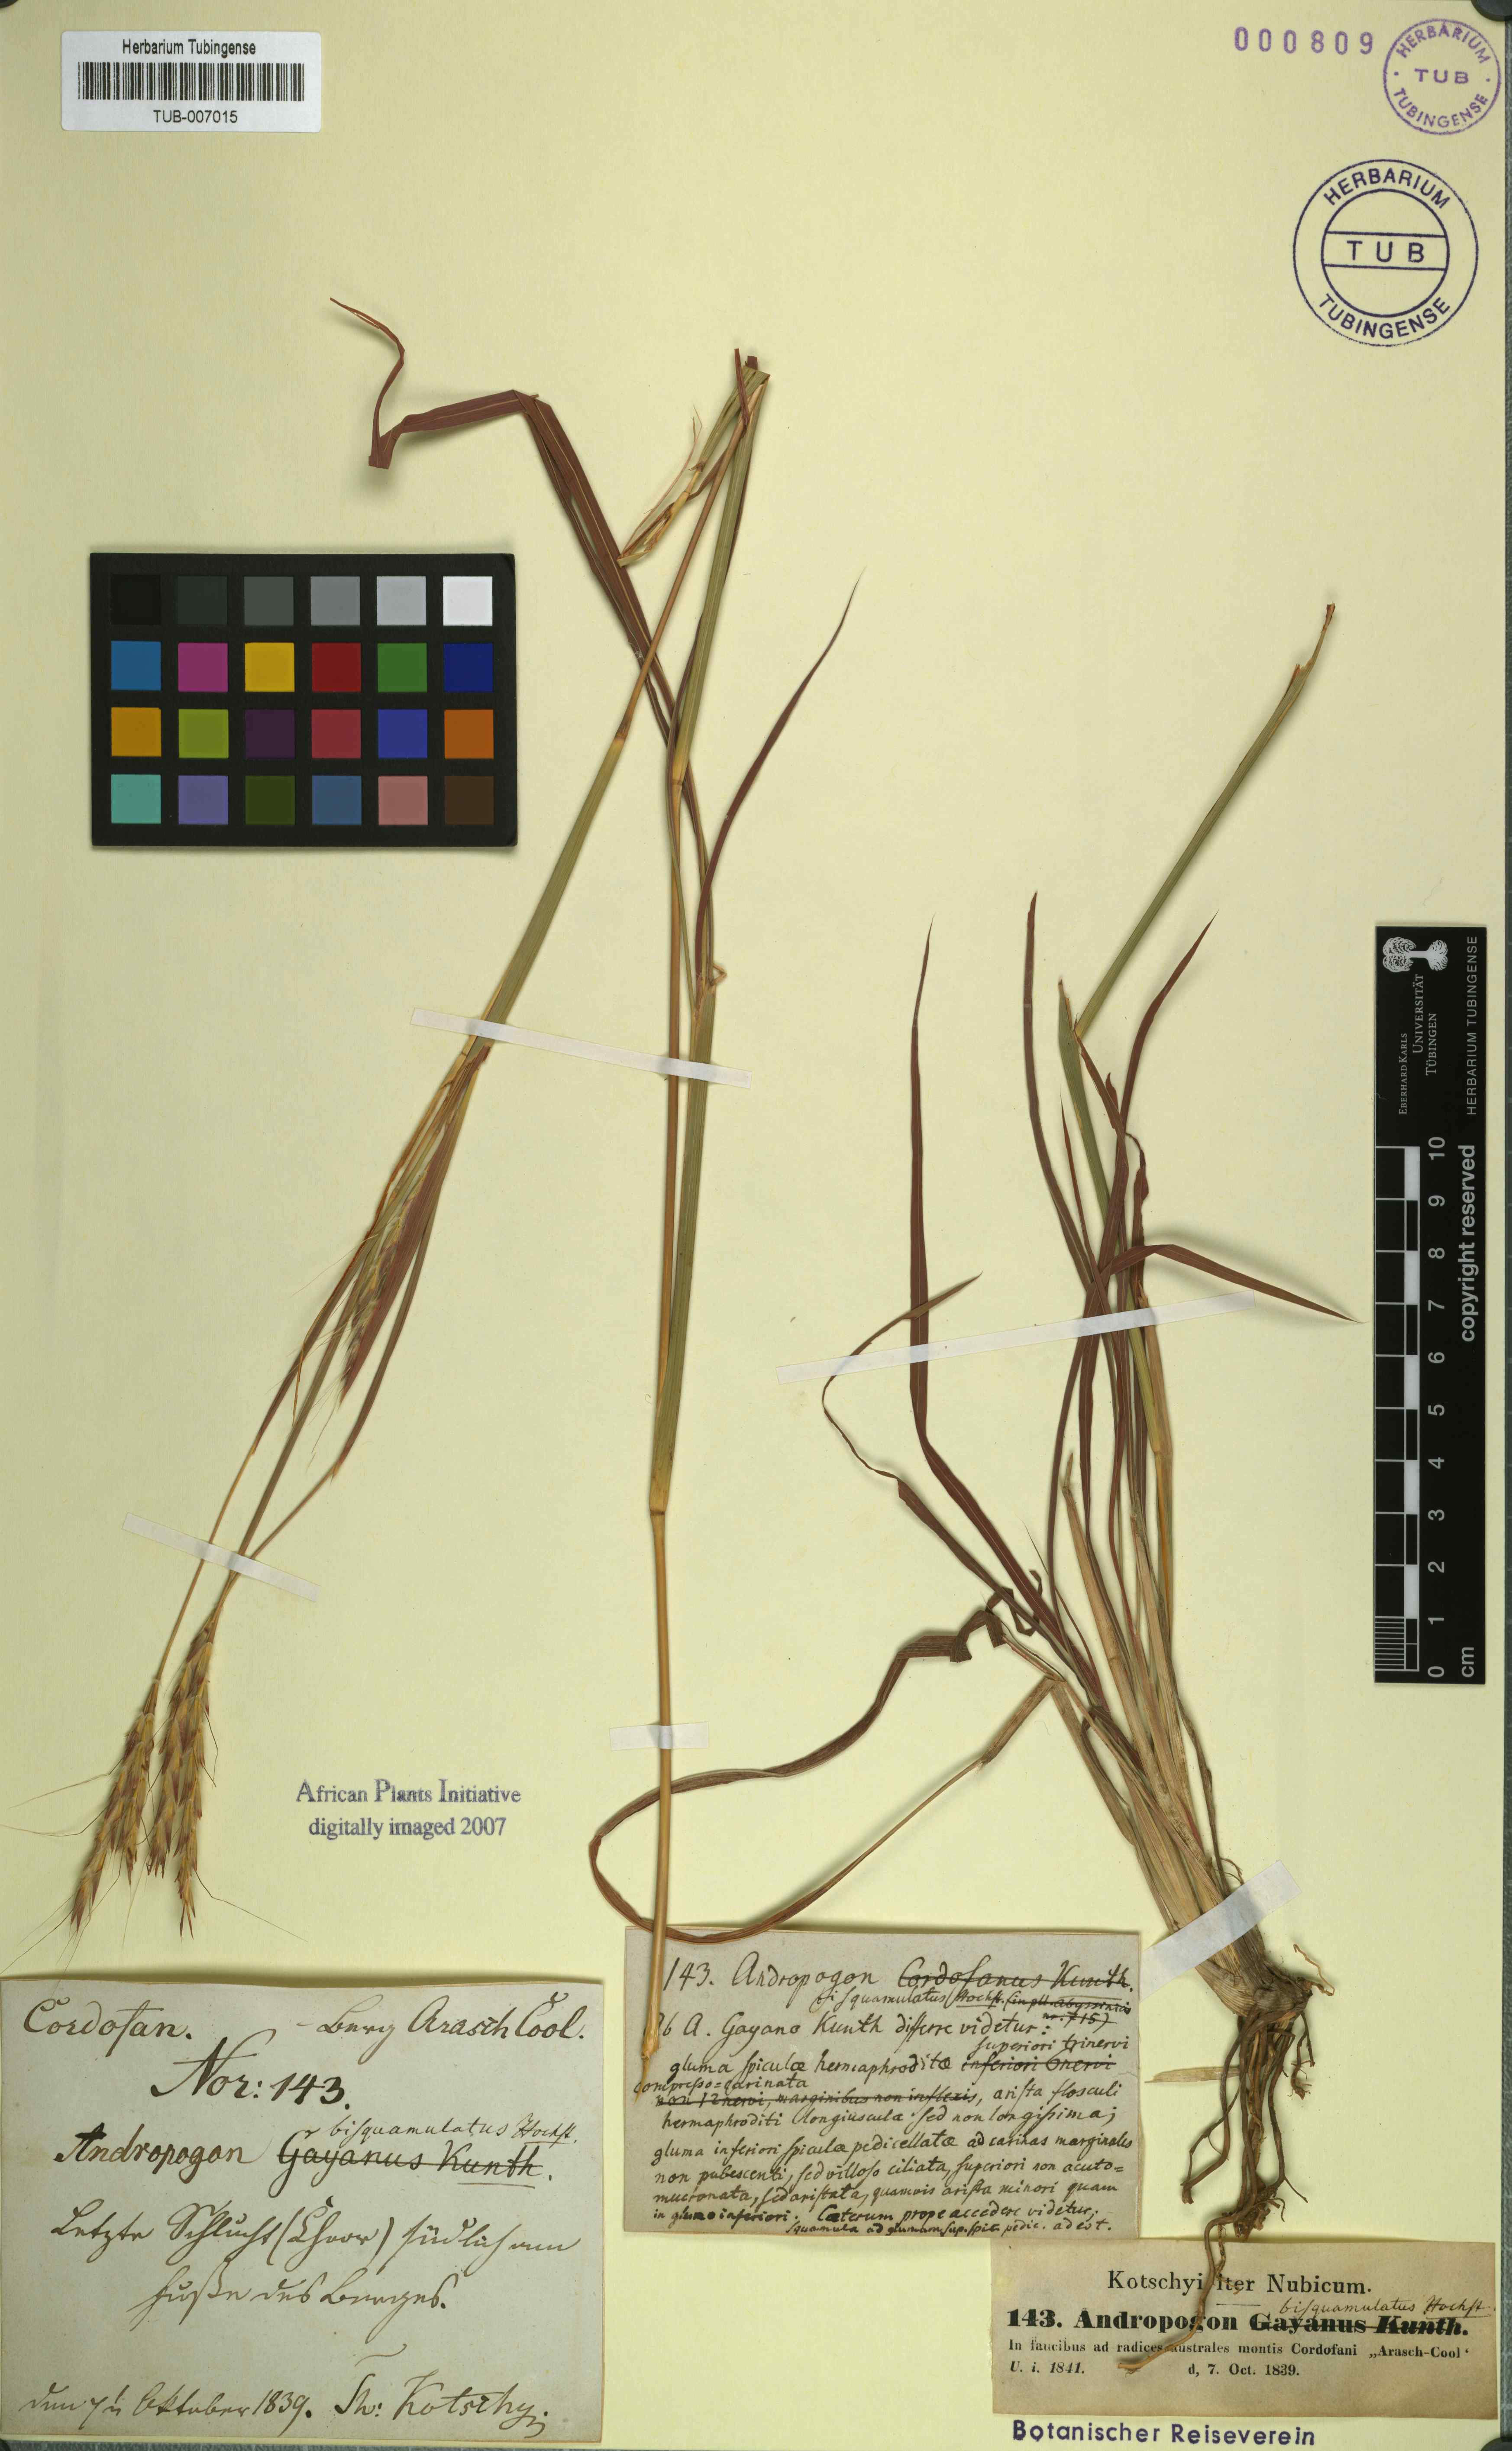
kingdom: Plantae
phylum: Tracheophyta
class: Liliopsida
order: Poales
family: Poaceae
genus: Andropogon
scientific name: Andropogon gayanus
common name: Tambuki grass
